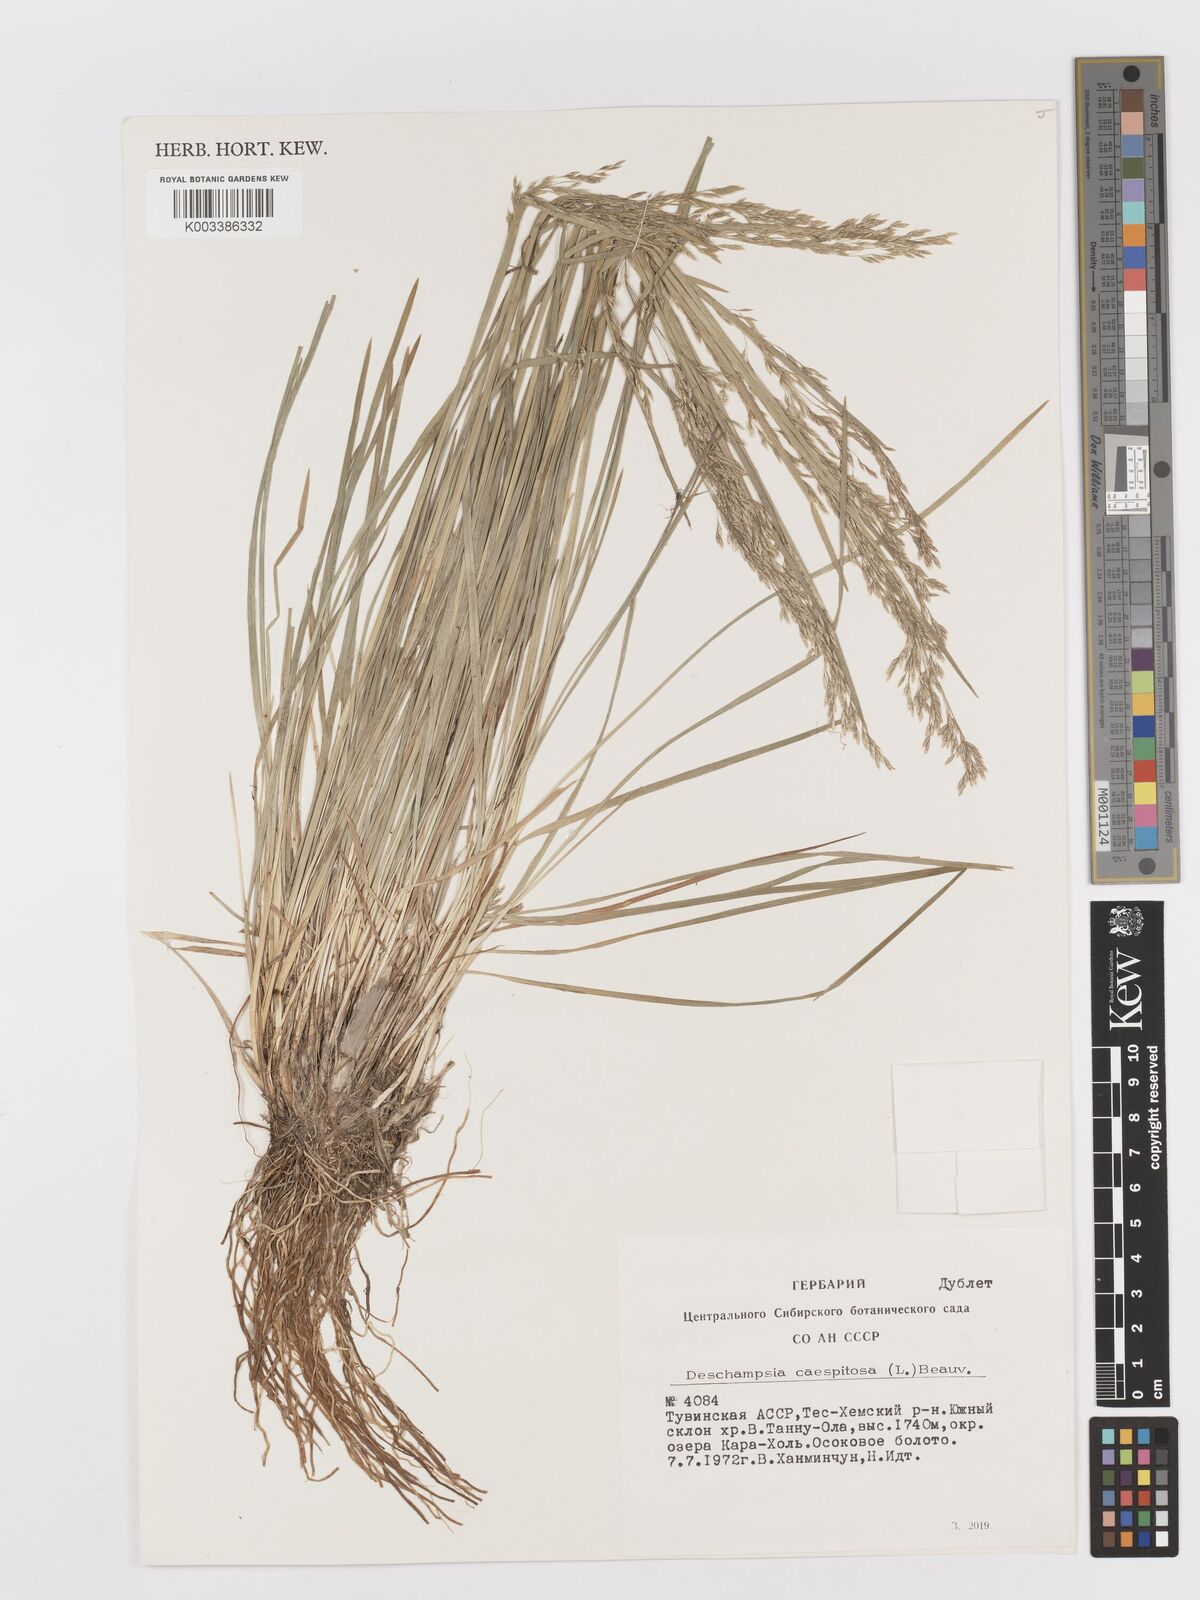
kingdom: Plantae
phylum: Tracheophyta
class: Liliopsida
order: Poales
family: Poaceae
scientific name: Poaceae
